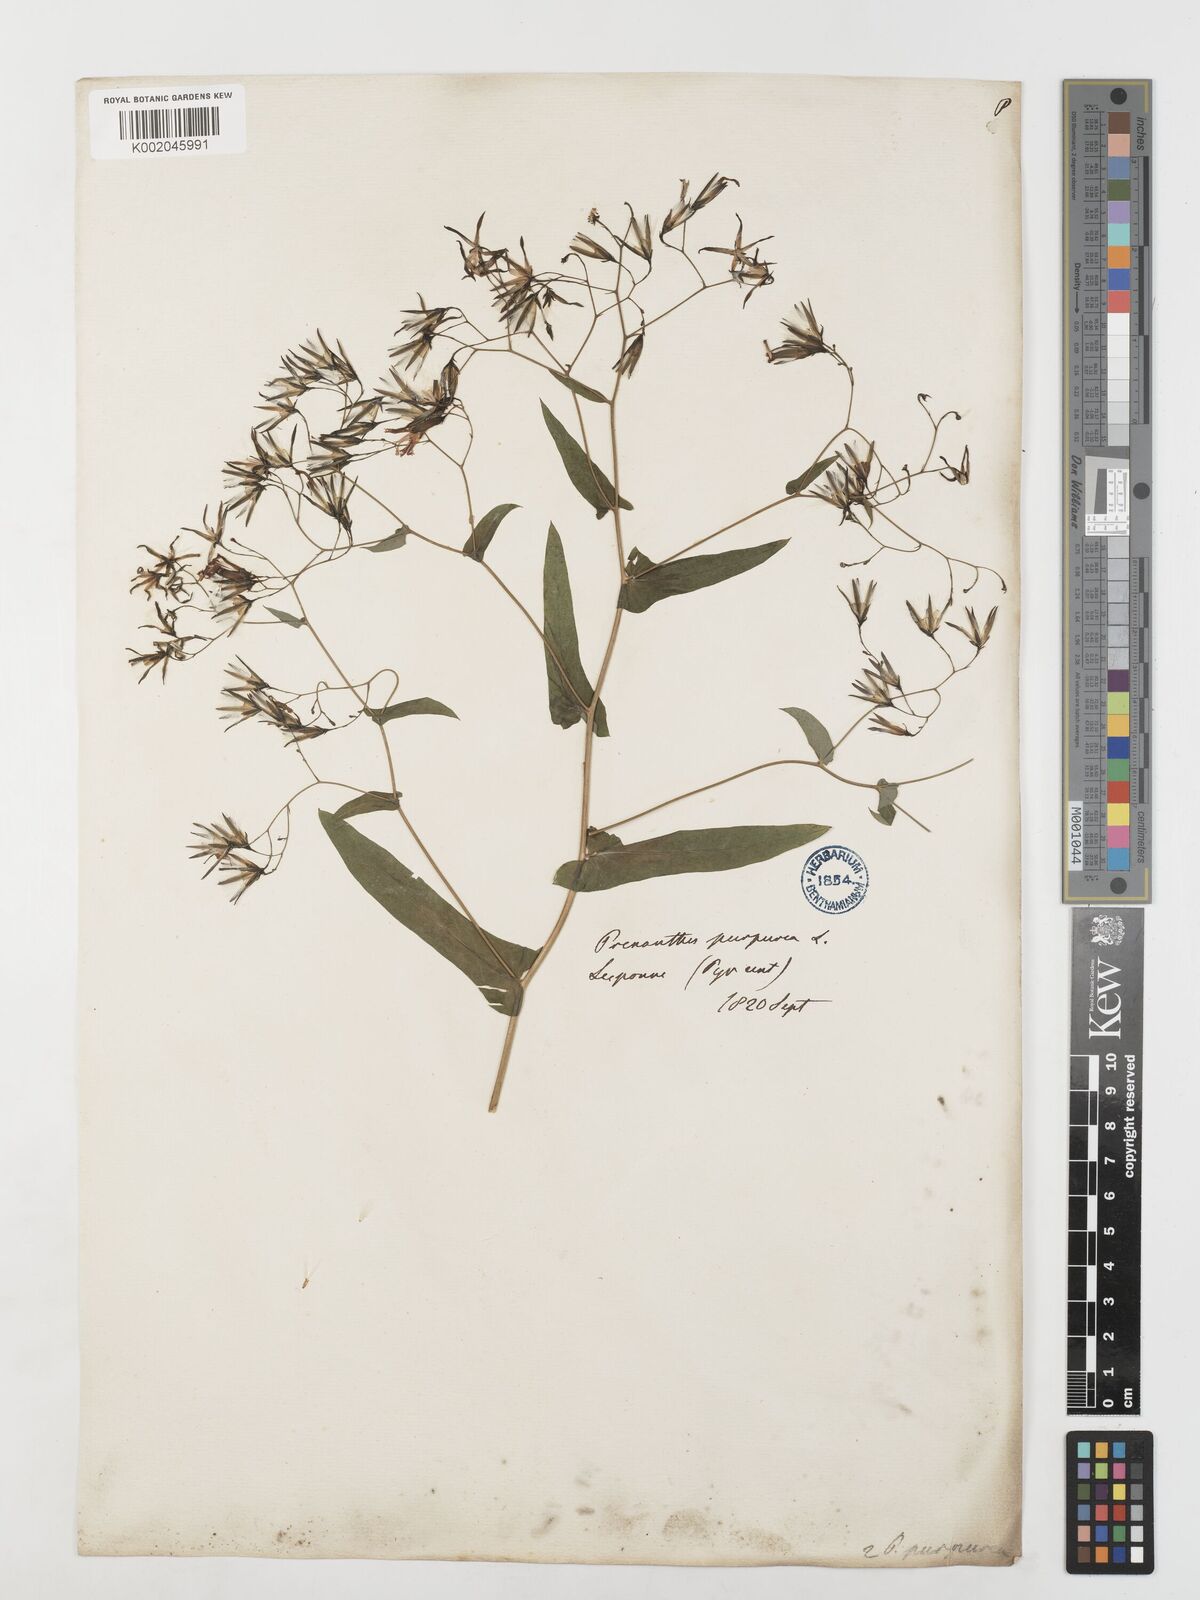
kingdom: Plantae
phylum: Tracheophyta
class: Magnoliopsida
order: Asterales
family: Asteraceae
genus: Prenanthes
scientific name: Prenanthes purpurea
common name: Purple lettuce
